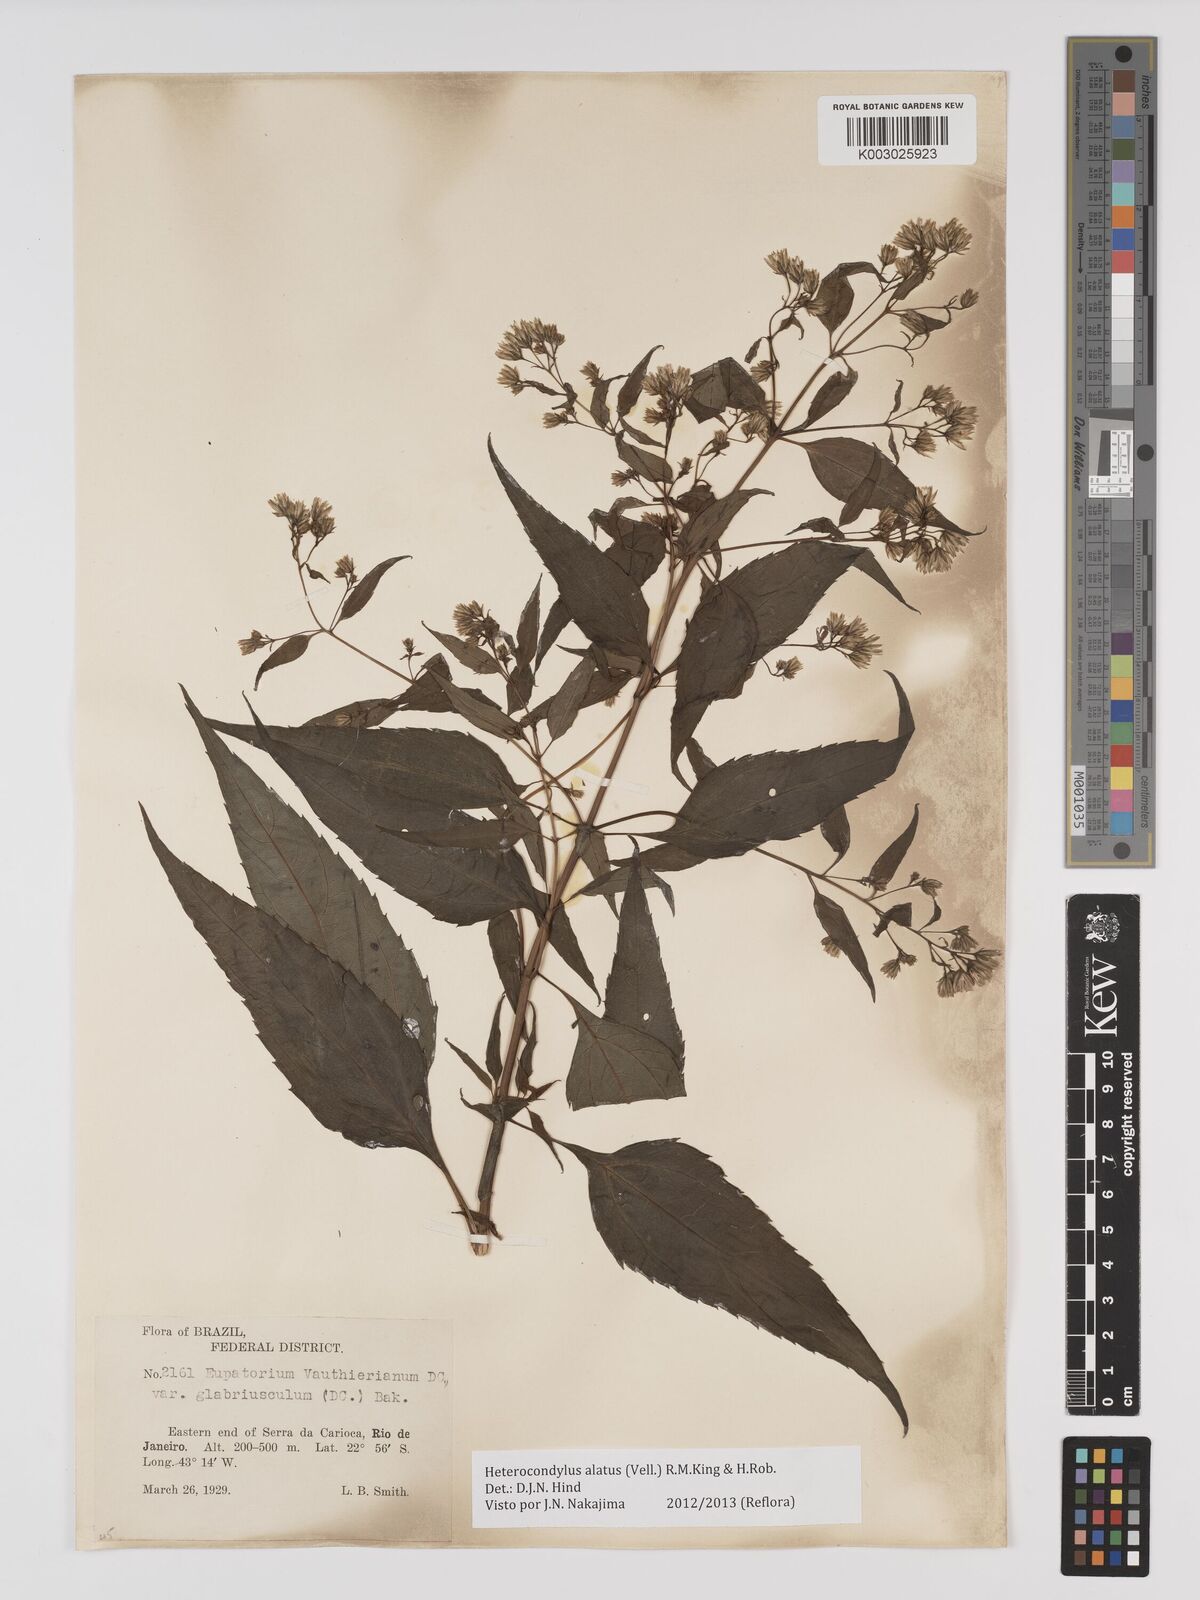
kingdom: Plantae
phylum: Tracheophyta
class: Magnoliopsida
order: Asterales
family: Asteraceae
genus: Heterocondylus
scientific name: Heterocondylus alatus
